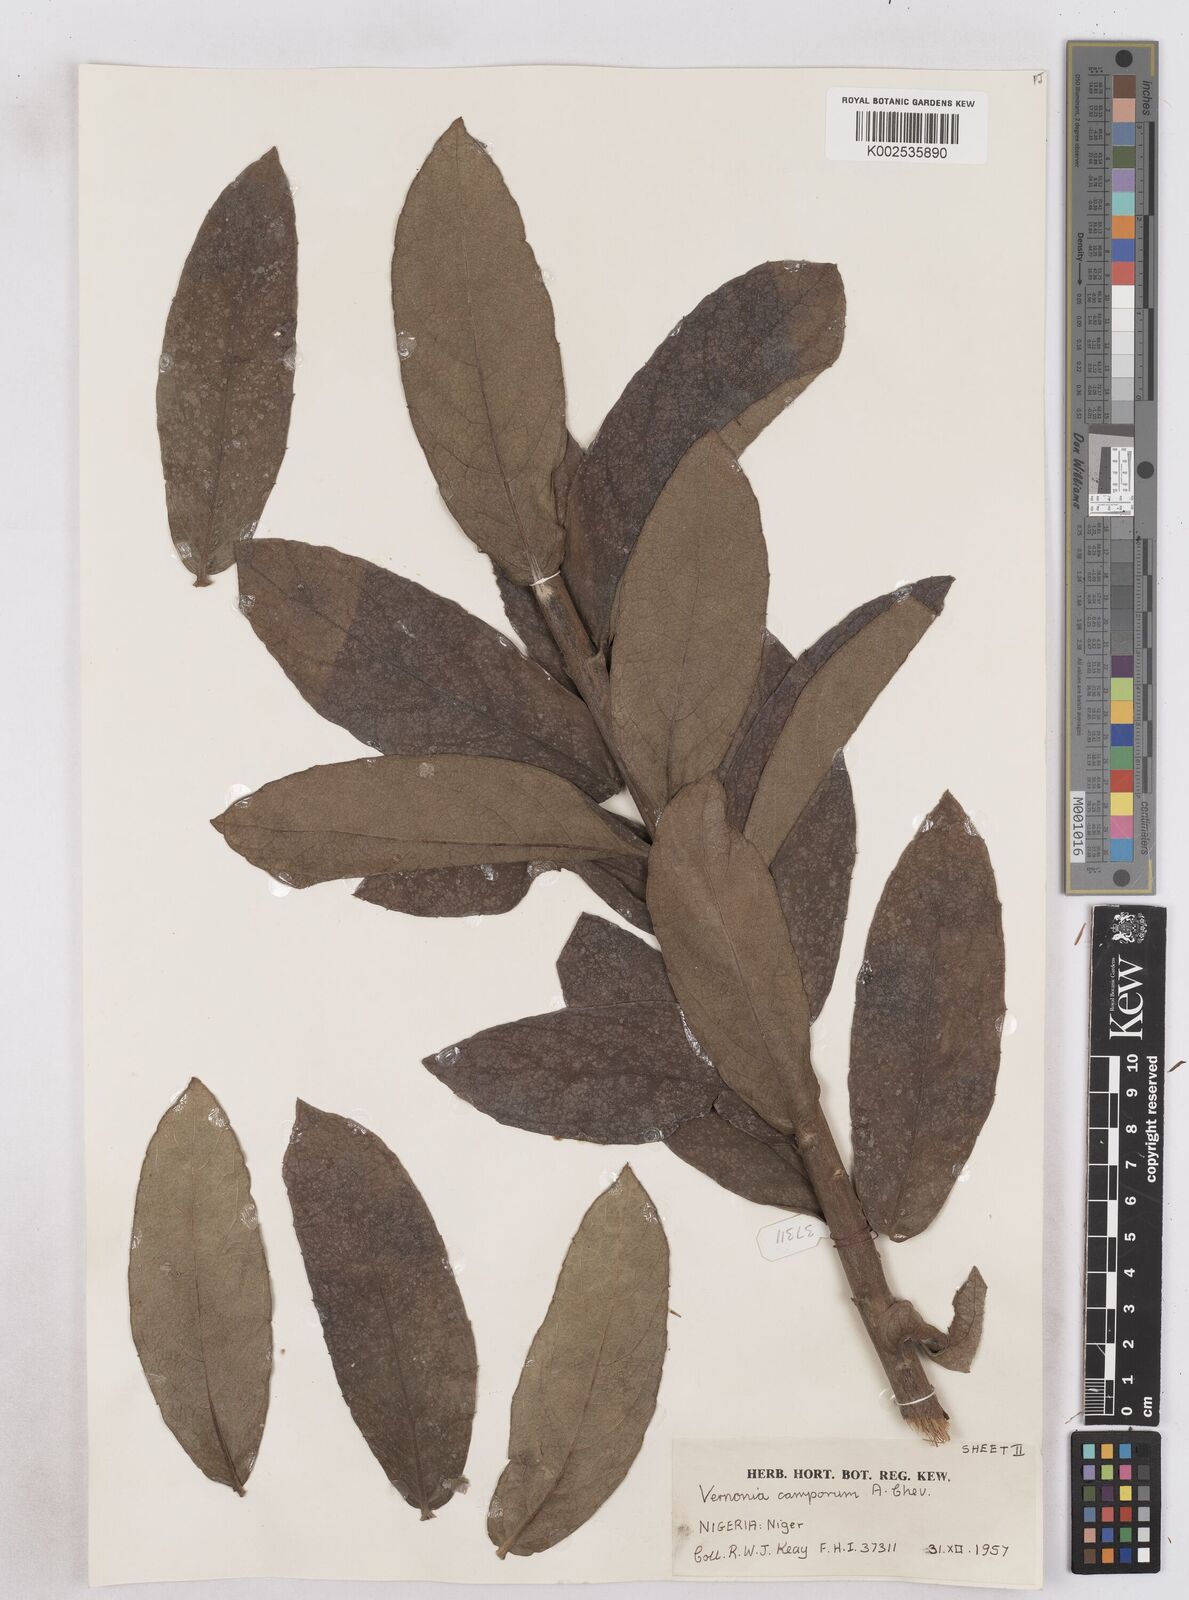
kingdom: Plantae
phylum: Tracheophyta
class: Magnoliopsida
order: Asterales
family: Asteraceae
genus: Vernoniastrum
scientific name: Vernoniastrum camporum
